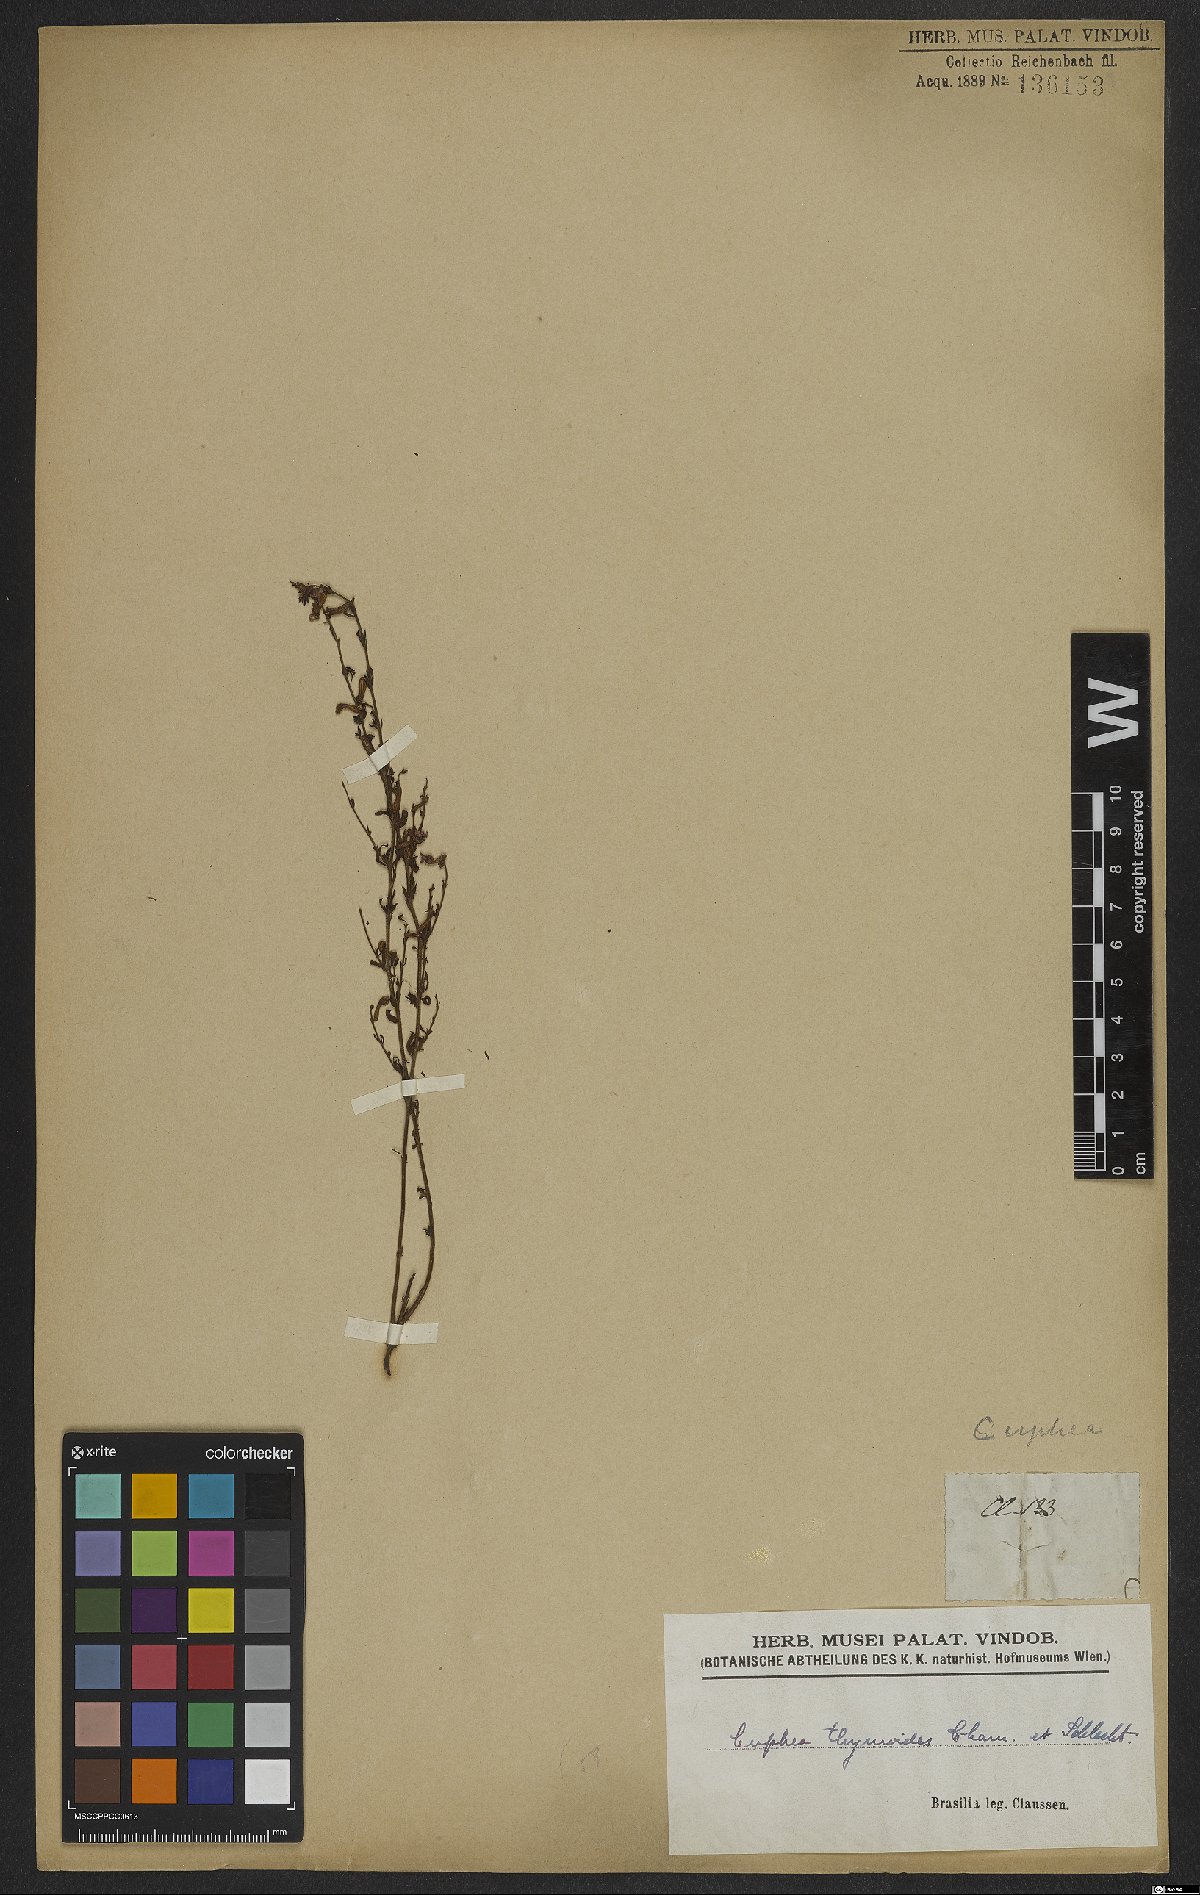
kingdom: Plantae
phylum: Tracheophyta
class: Magnoliopsida
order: Myrtales
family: Lythraceae
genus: Cuphea
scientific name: Cuphea thymoides
